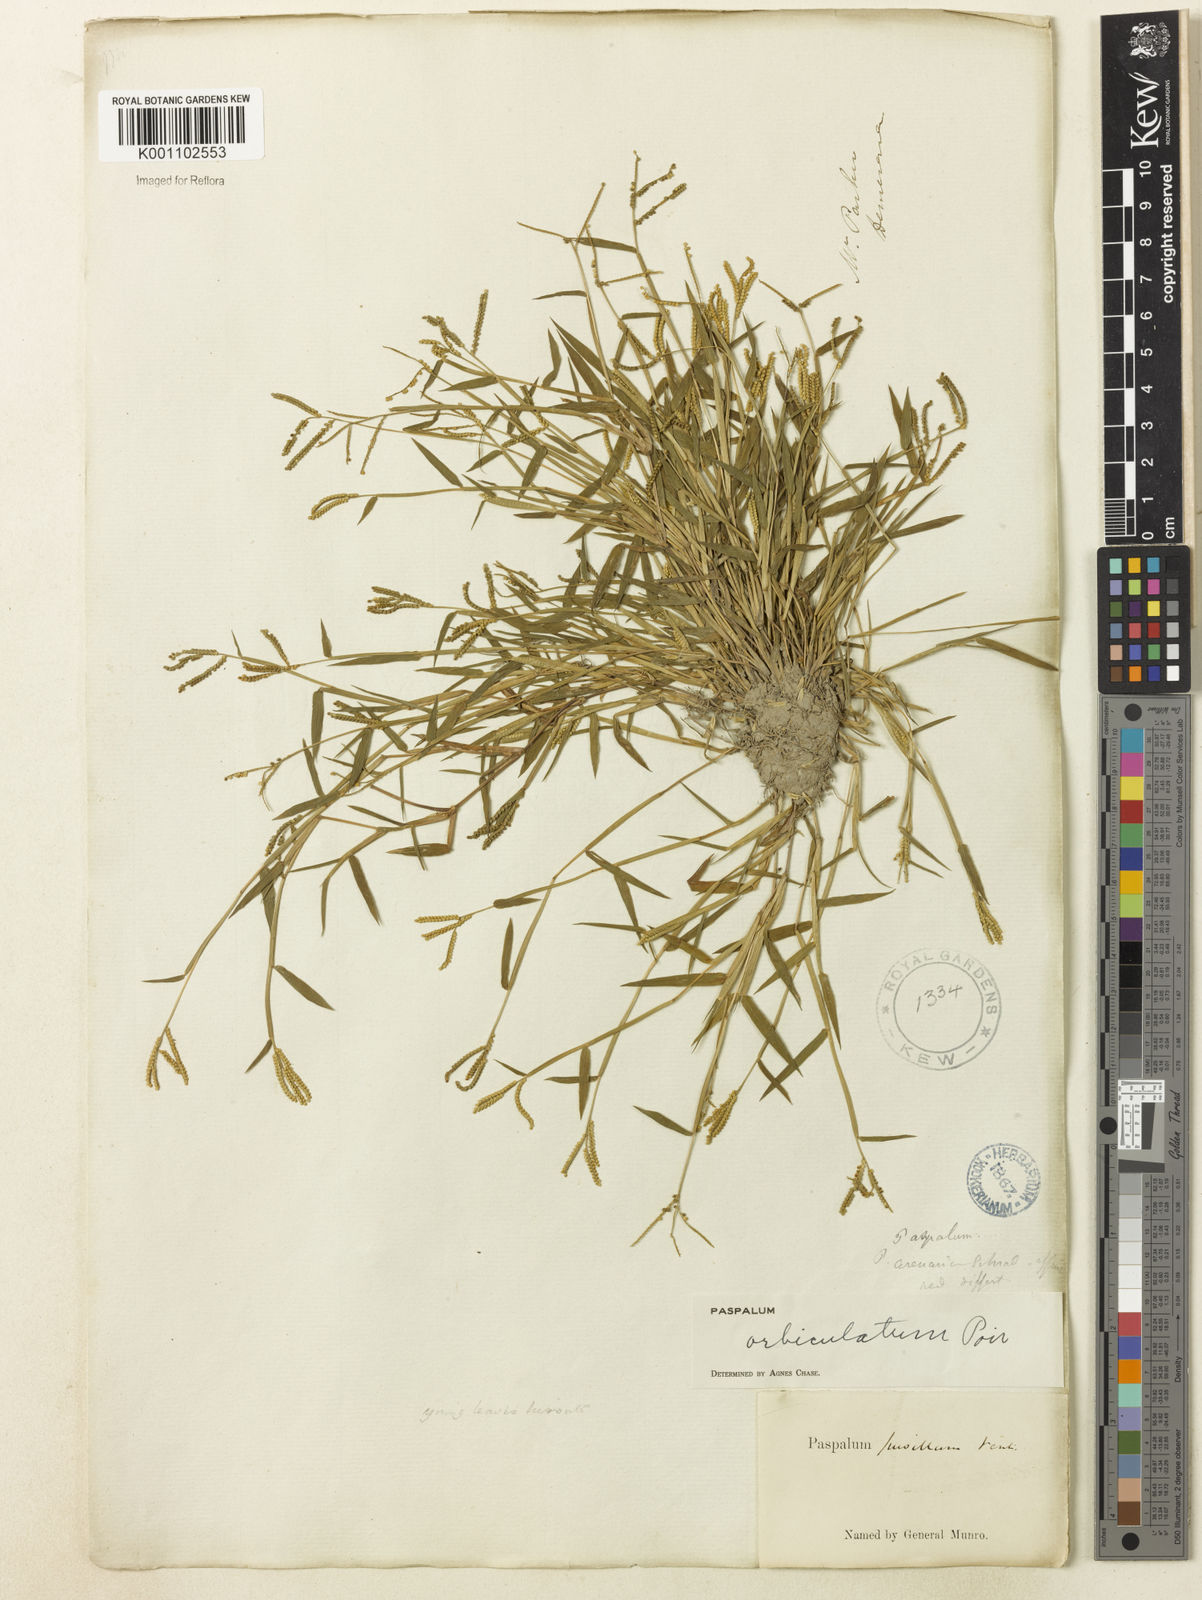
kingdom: Plantae
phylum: Tracheophyta
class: Liliopsida
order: Poales
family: Poaceae
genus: Paspalum
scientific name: Paspalum orbiculatum
